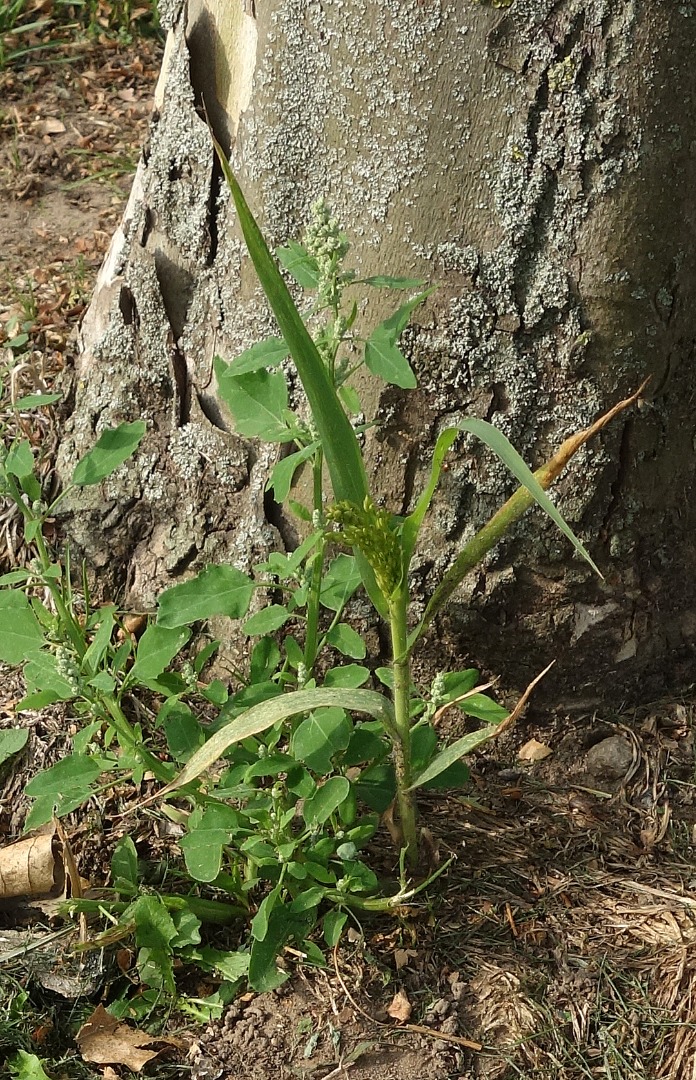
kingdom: Plantae
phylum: Tracheophyta
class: Liliopsida
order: Poales
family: Poaceae
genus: Panicum
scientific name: Panicum miliaceum
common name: Almindelig hirse
